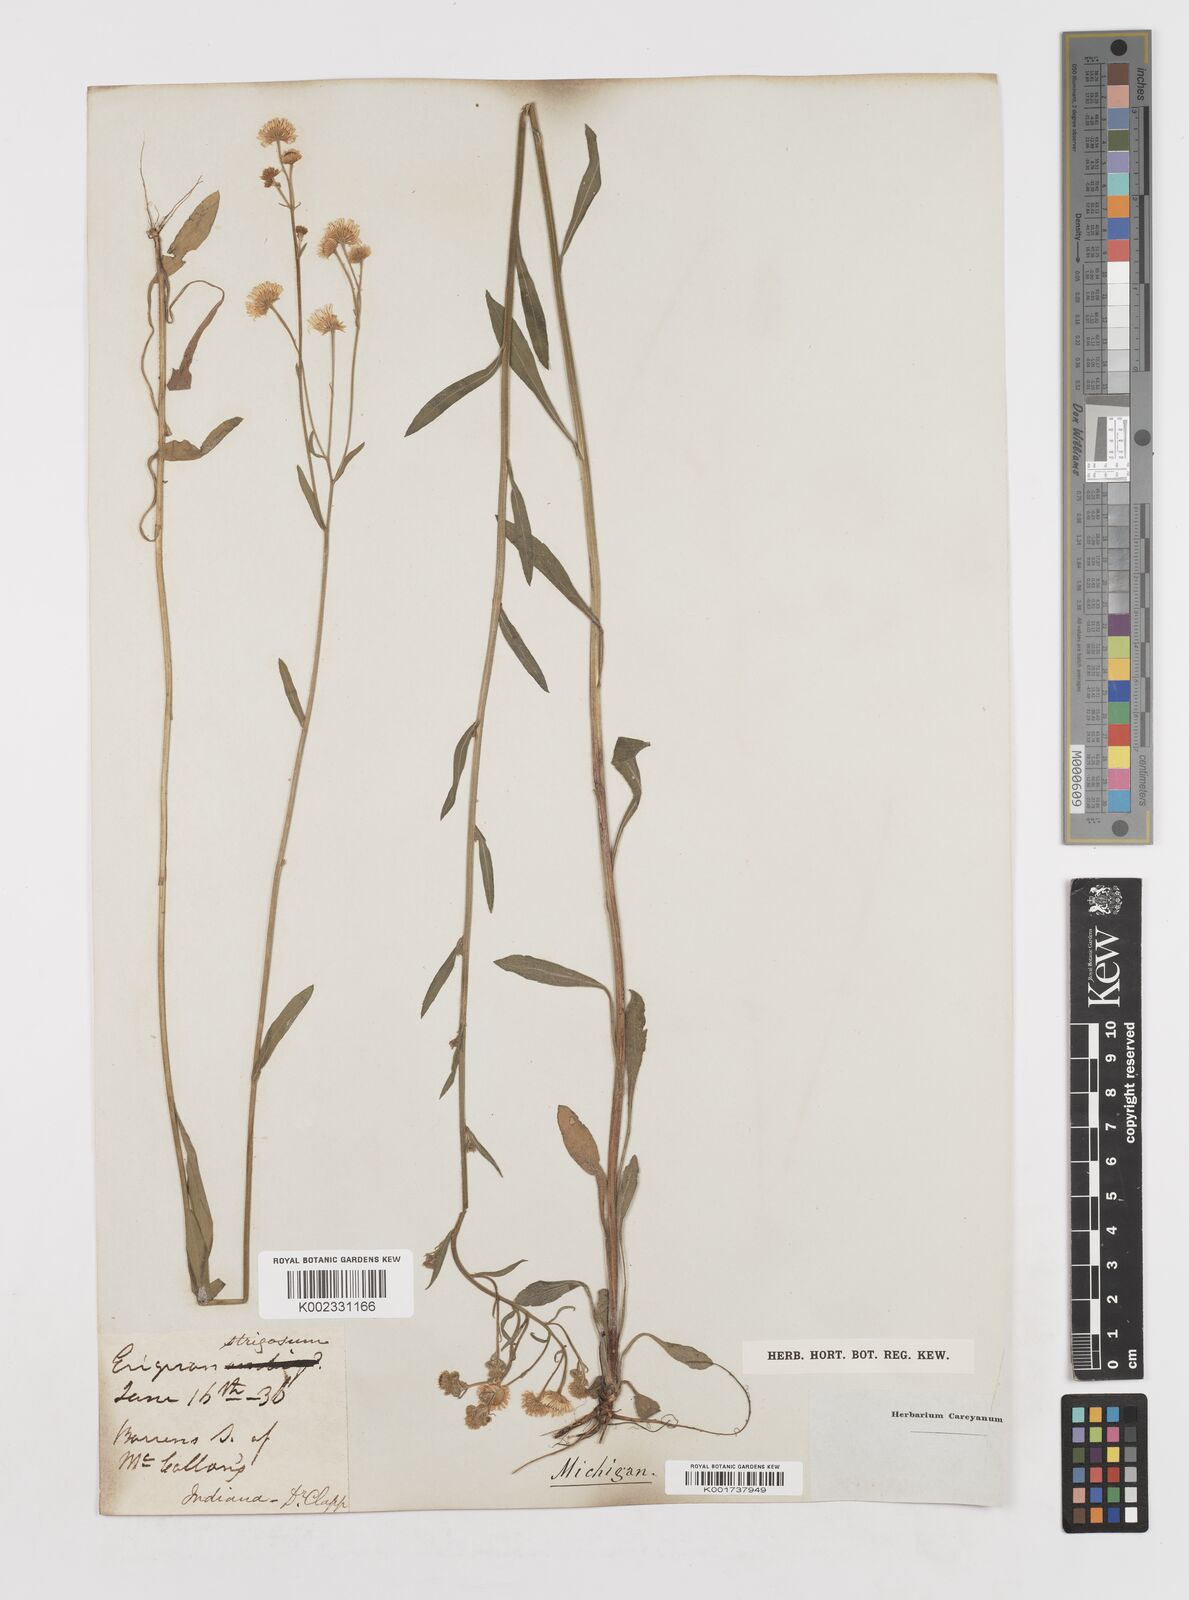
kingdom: Plantae
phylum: Tracheophyta
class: Magnoliopsida
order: Asterales
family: Asteraceae
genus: Erigeron
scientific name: Erigeron strigosus
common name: Common eastern fleabane
